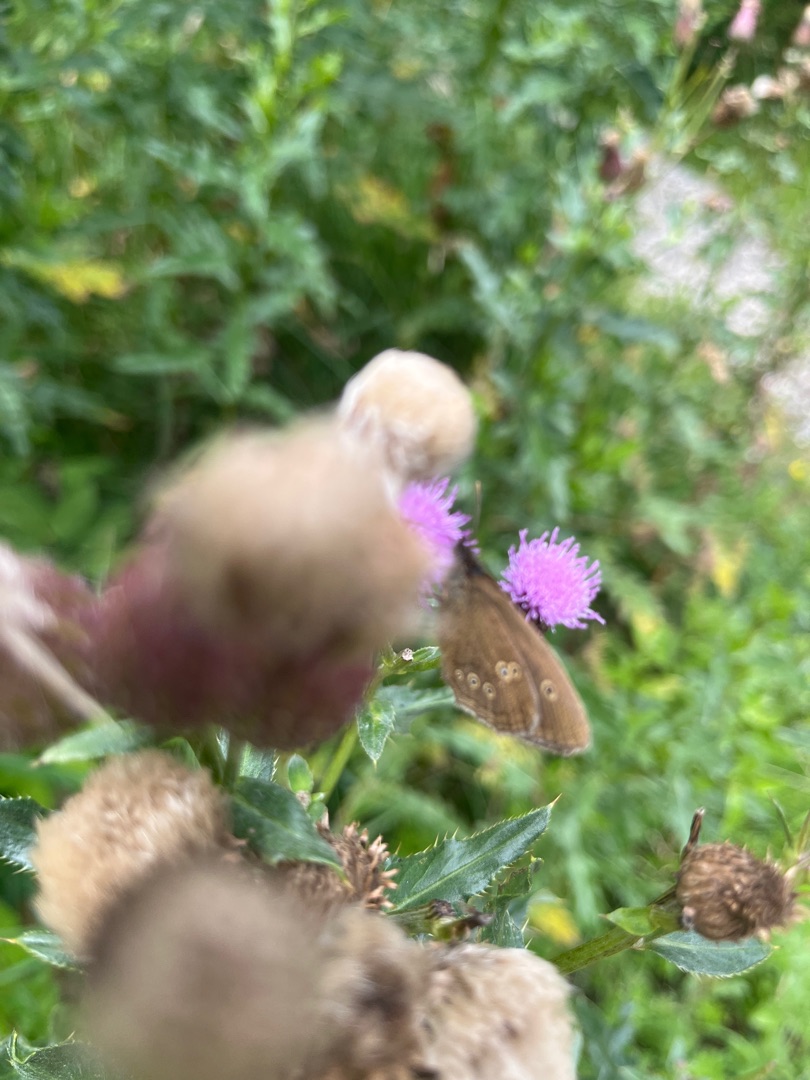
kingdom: Animalia
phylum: Arthropoda
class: Insecta
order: Lepidoptera
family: Nymphalidae
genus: Aphantopus
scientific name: Aphantopus hyperantus
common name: Engrandøje
